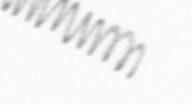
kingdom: Chromista
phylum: Ochrophyta
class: Bacillariophyceae
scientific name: Bacillariophyceae
